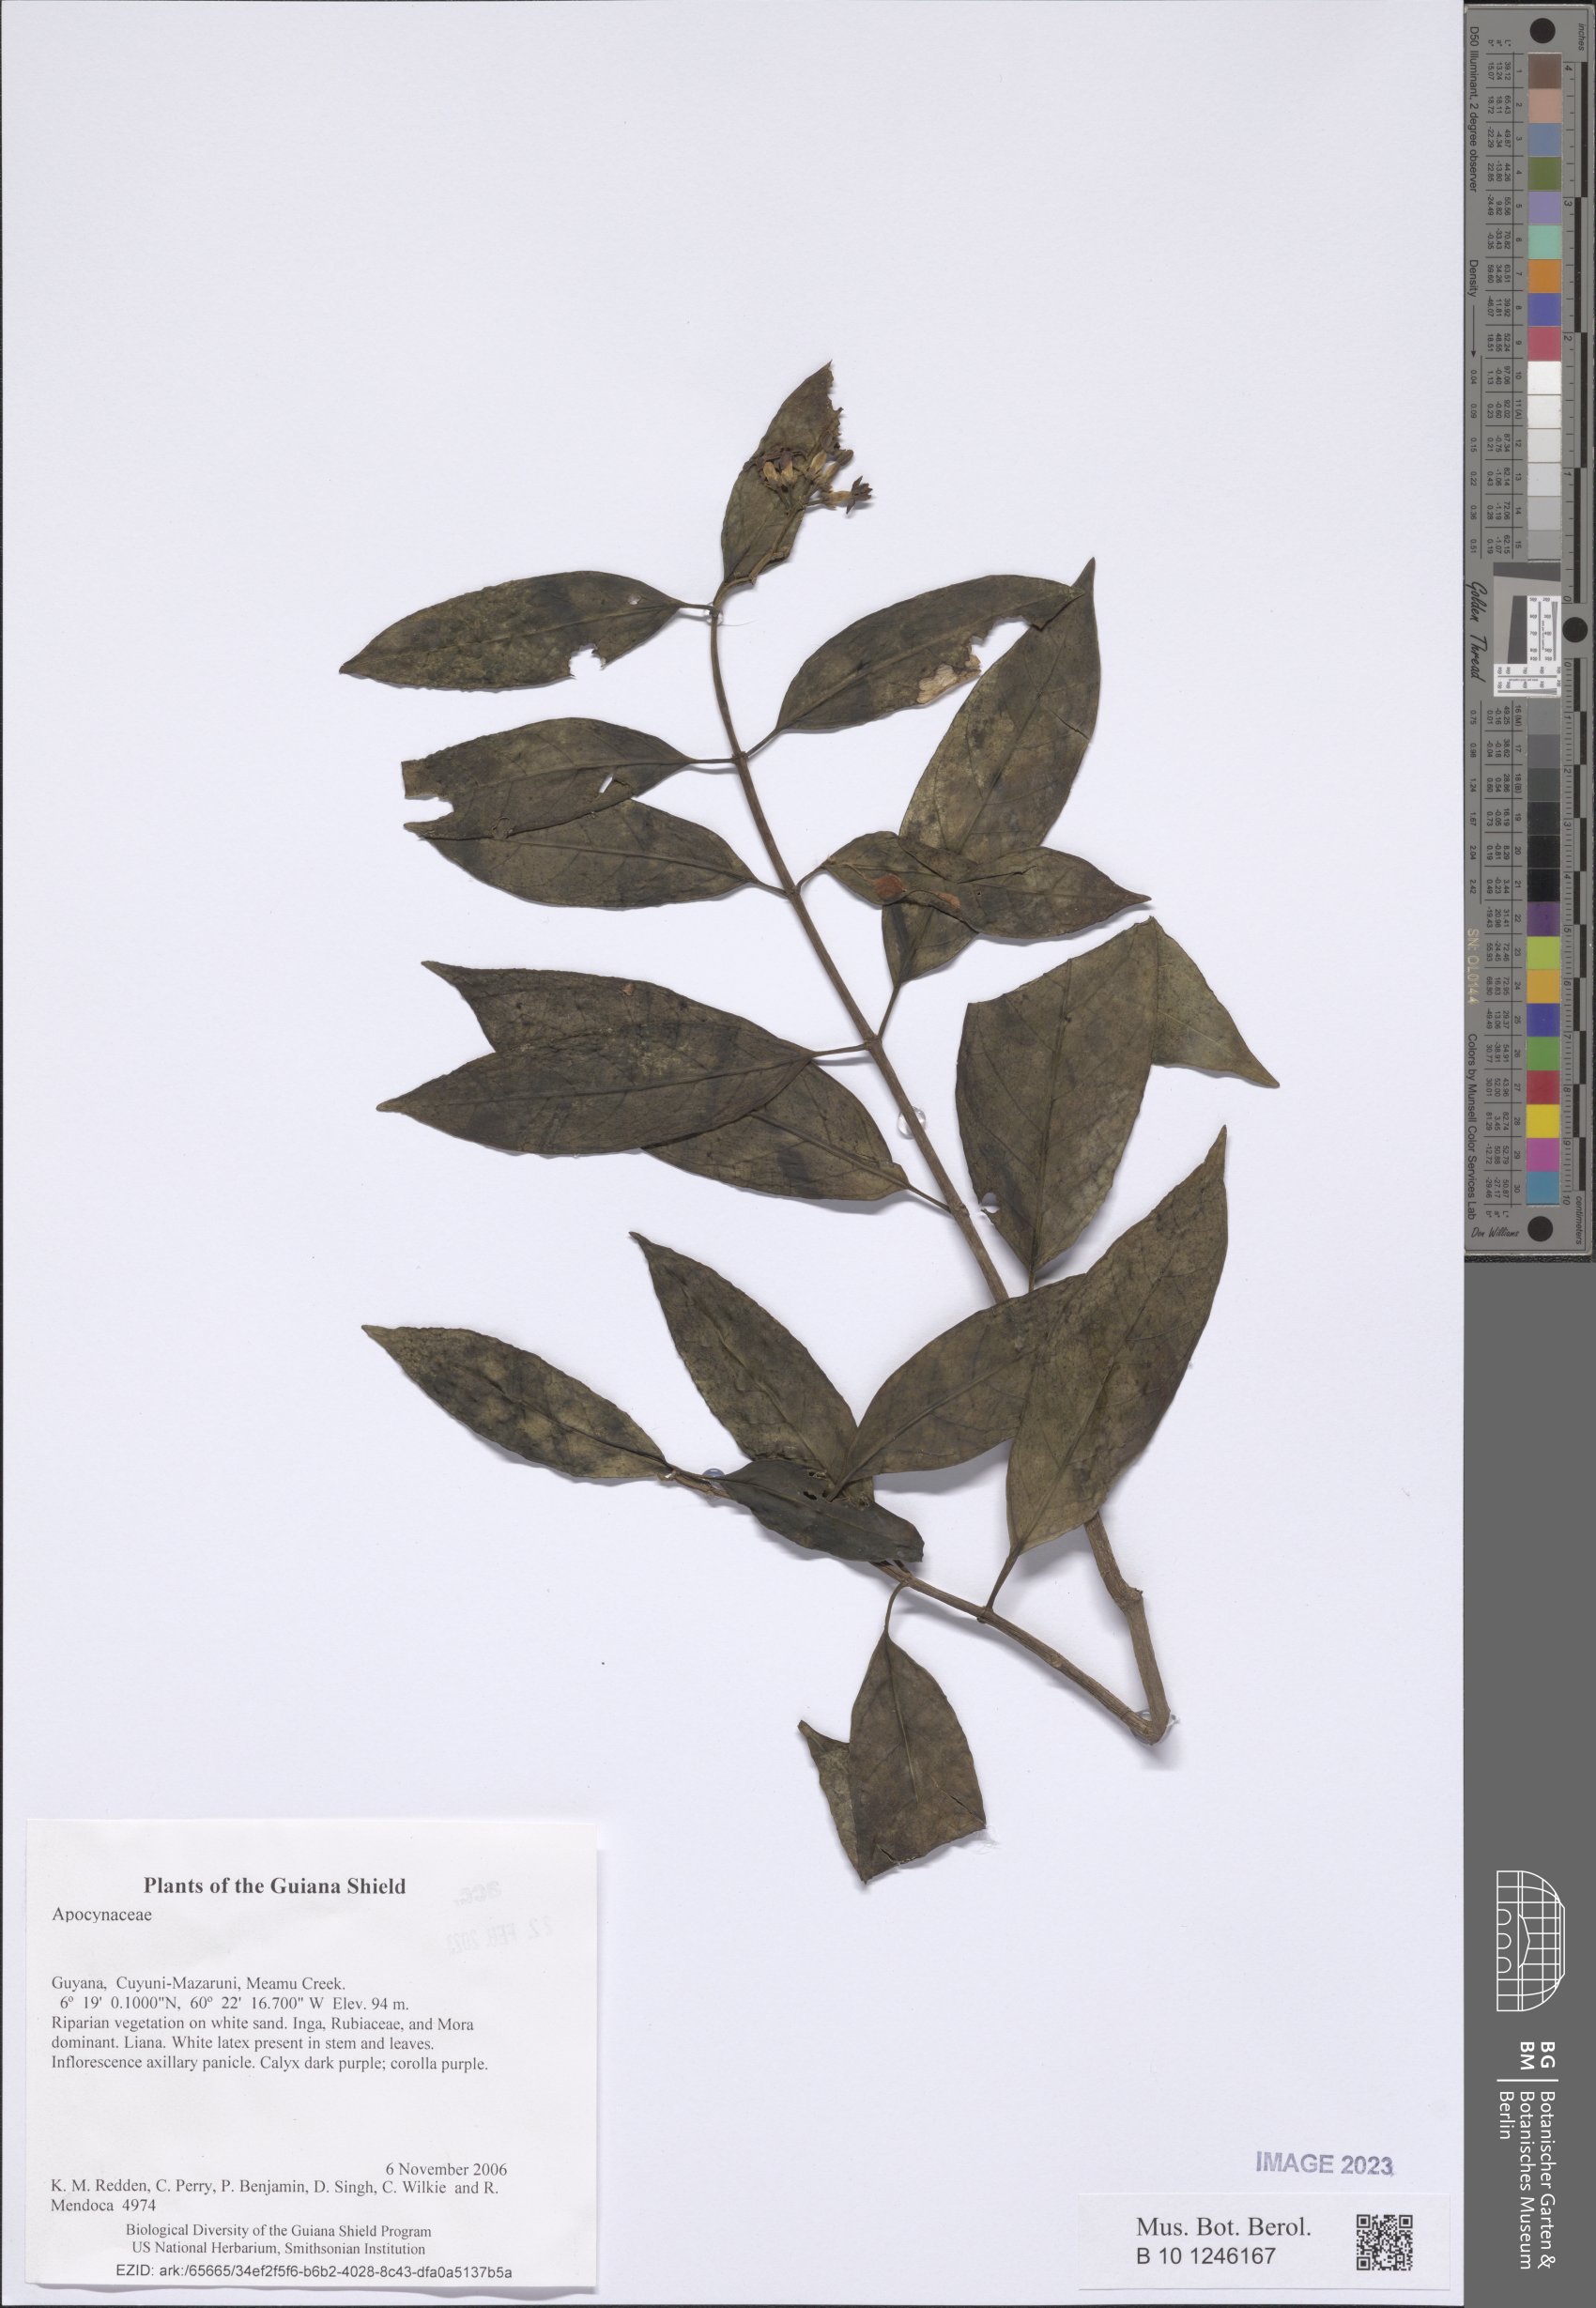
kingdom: Plantae
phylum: Tracheophyta
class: Magnoliopsida
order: Gentianales
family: Apocynaceae
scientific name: Apocynaceae
